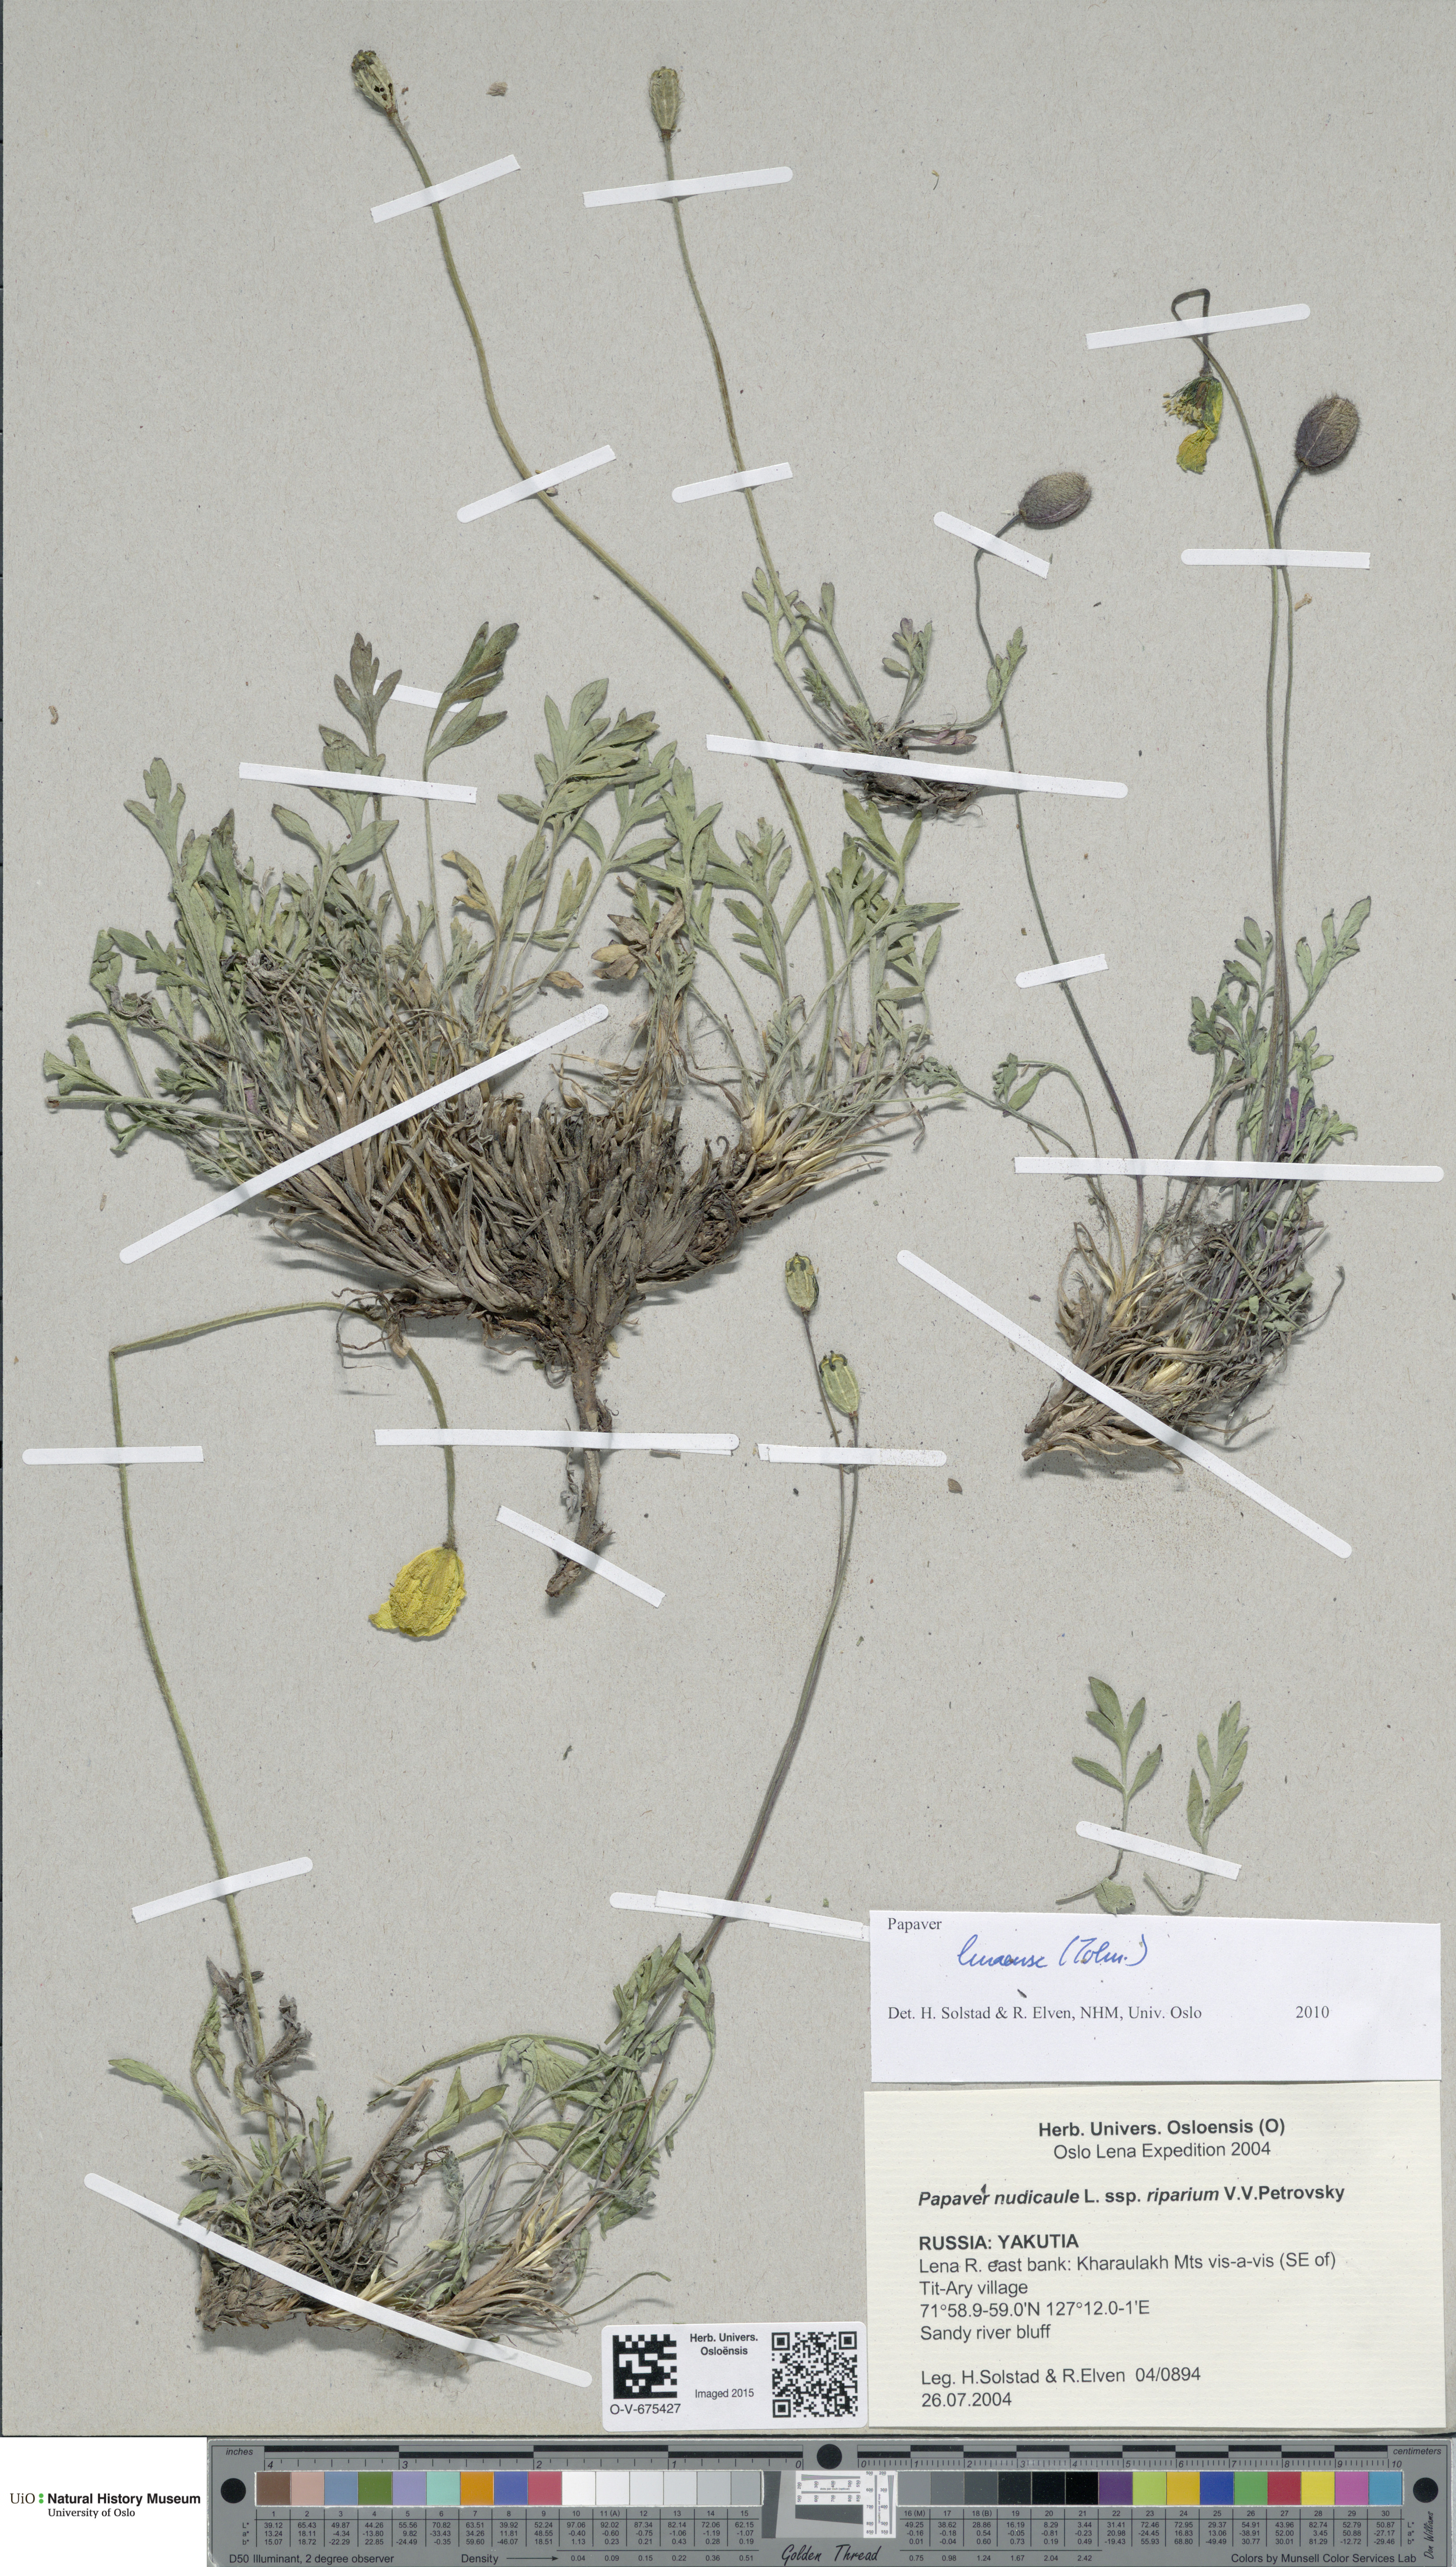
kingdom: Plantae
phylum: Tracheophyta
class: Magnoliopsida
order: Ranunculales
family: Papaveraceae
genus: Papaver
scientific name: Papaver lenaense
